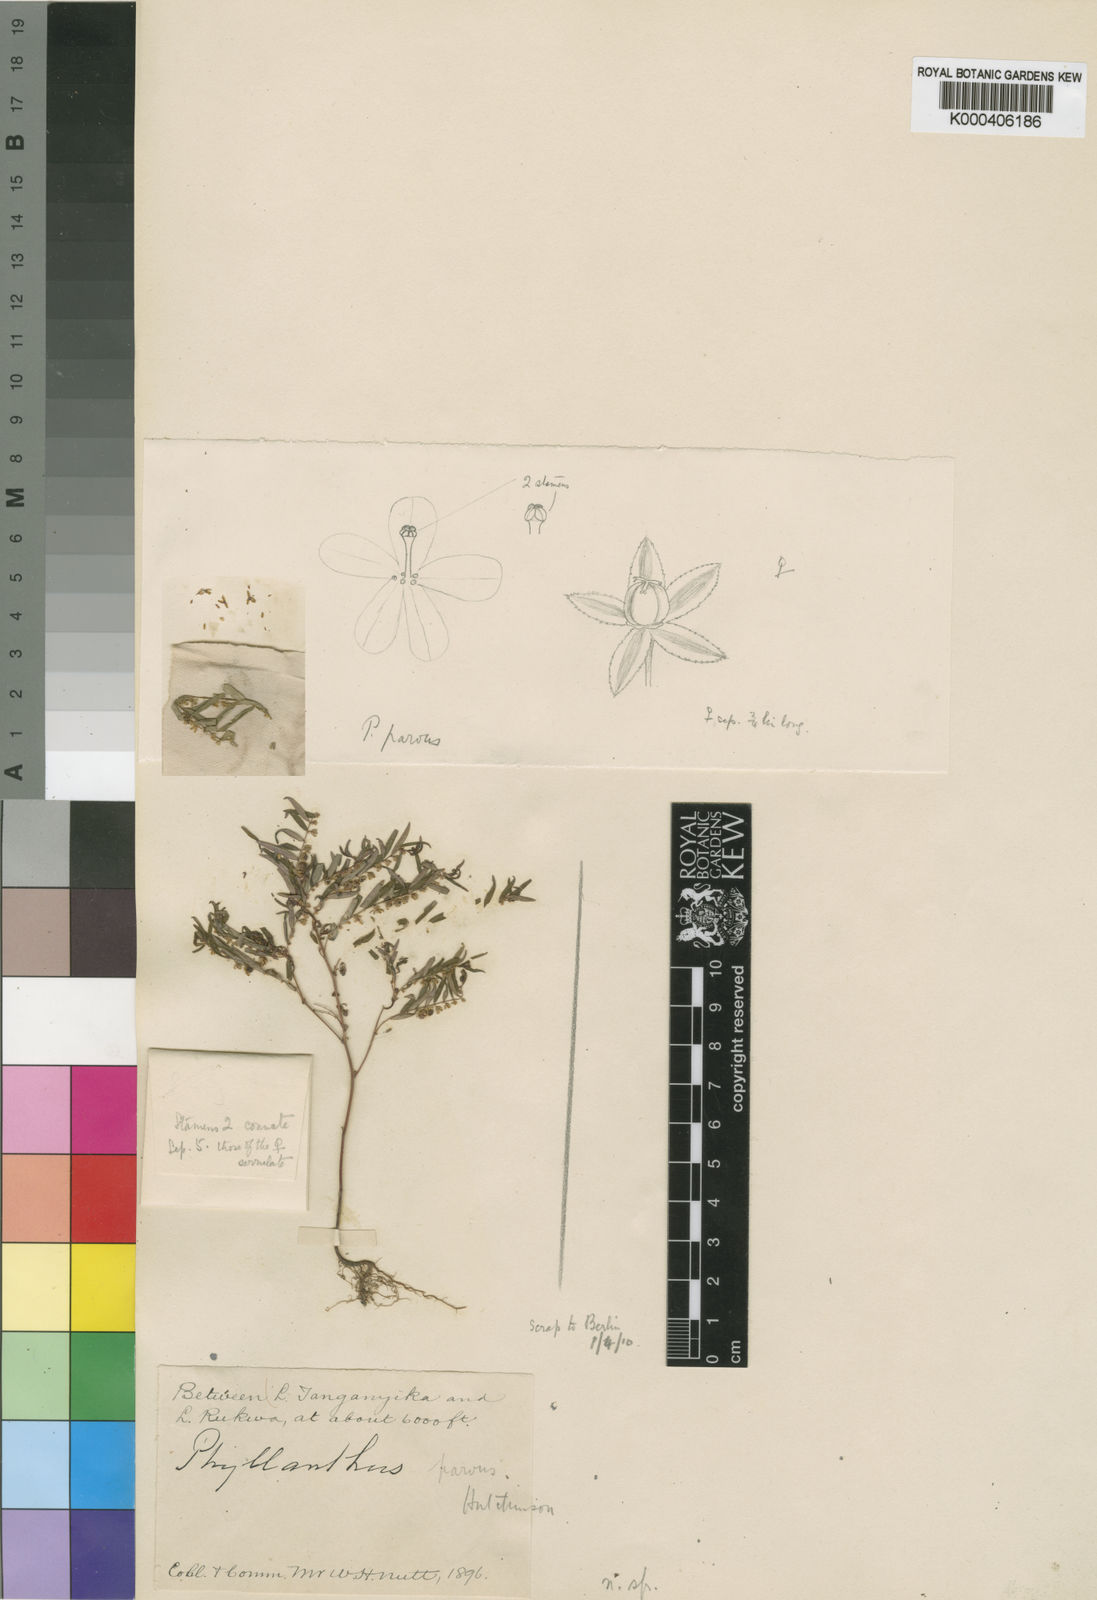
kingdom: Plantae
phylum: Tracheophyta
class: Magnoliopsida
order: Malpighiales
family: Phyllanthaceae
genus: Phyllanthus
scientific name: Phyllanthus parvus
